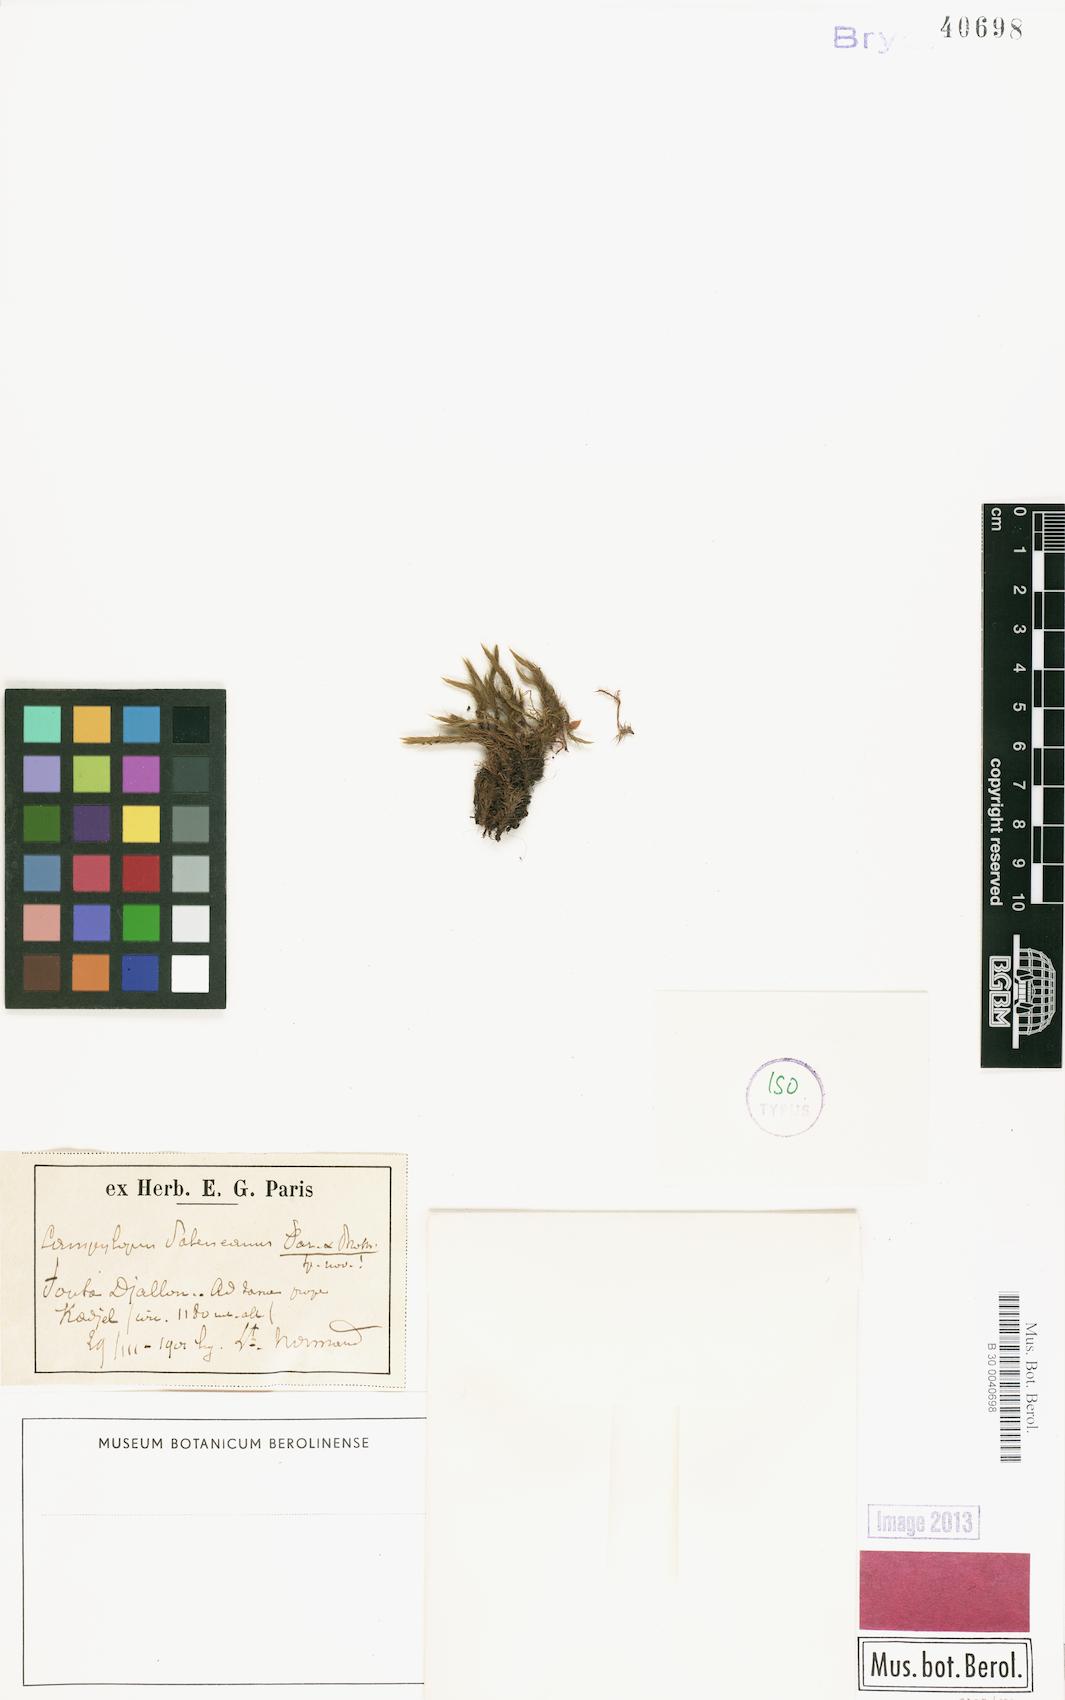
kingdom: Plantae
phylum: Bryophyta
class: Bryopsida
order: Dicranales
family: Leucobryaceae
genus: Campylopus
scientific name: Campylopus savannarum
